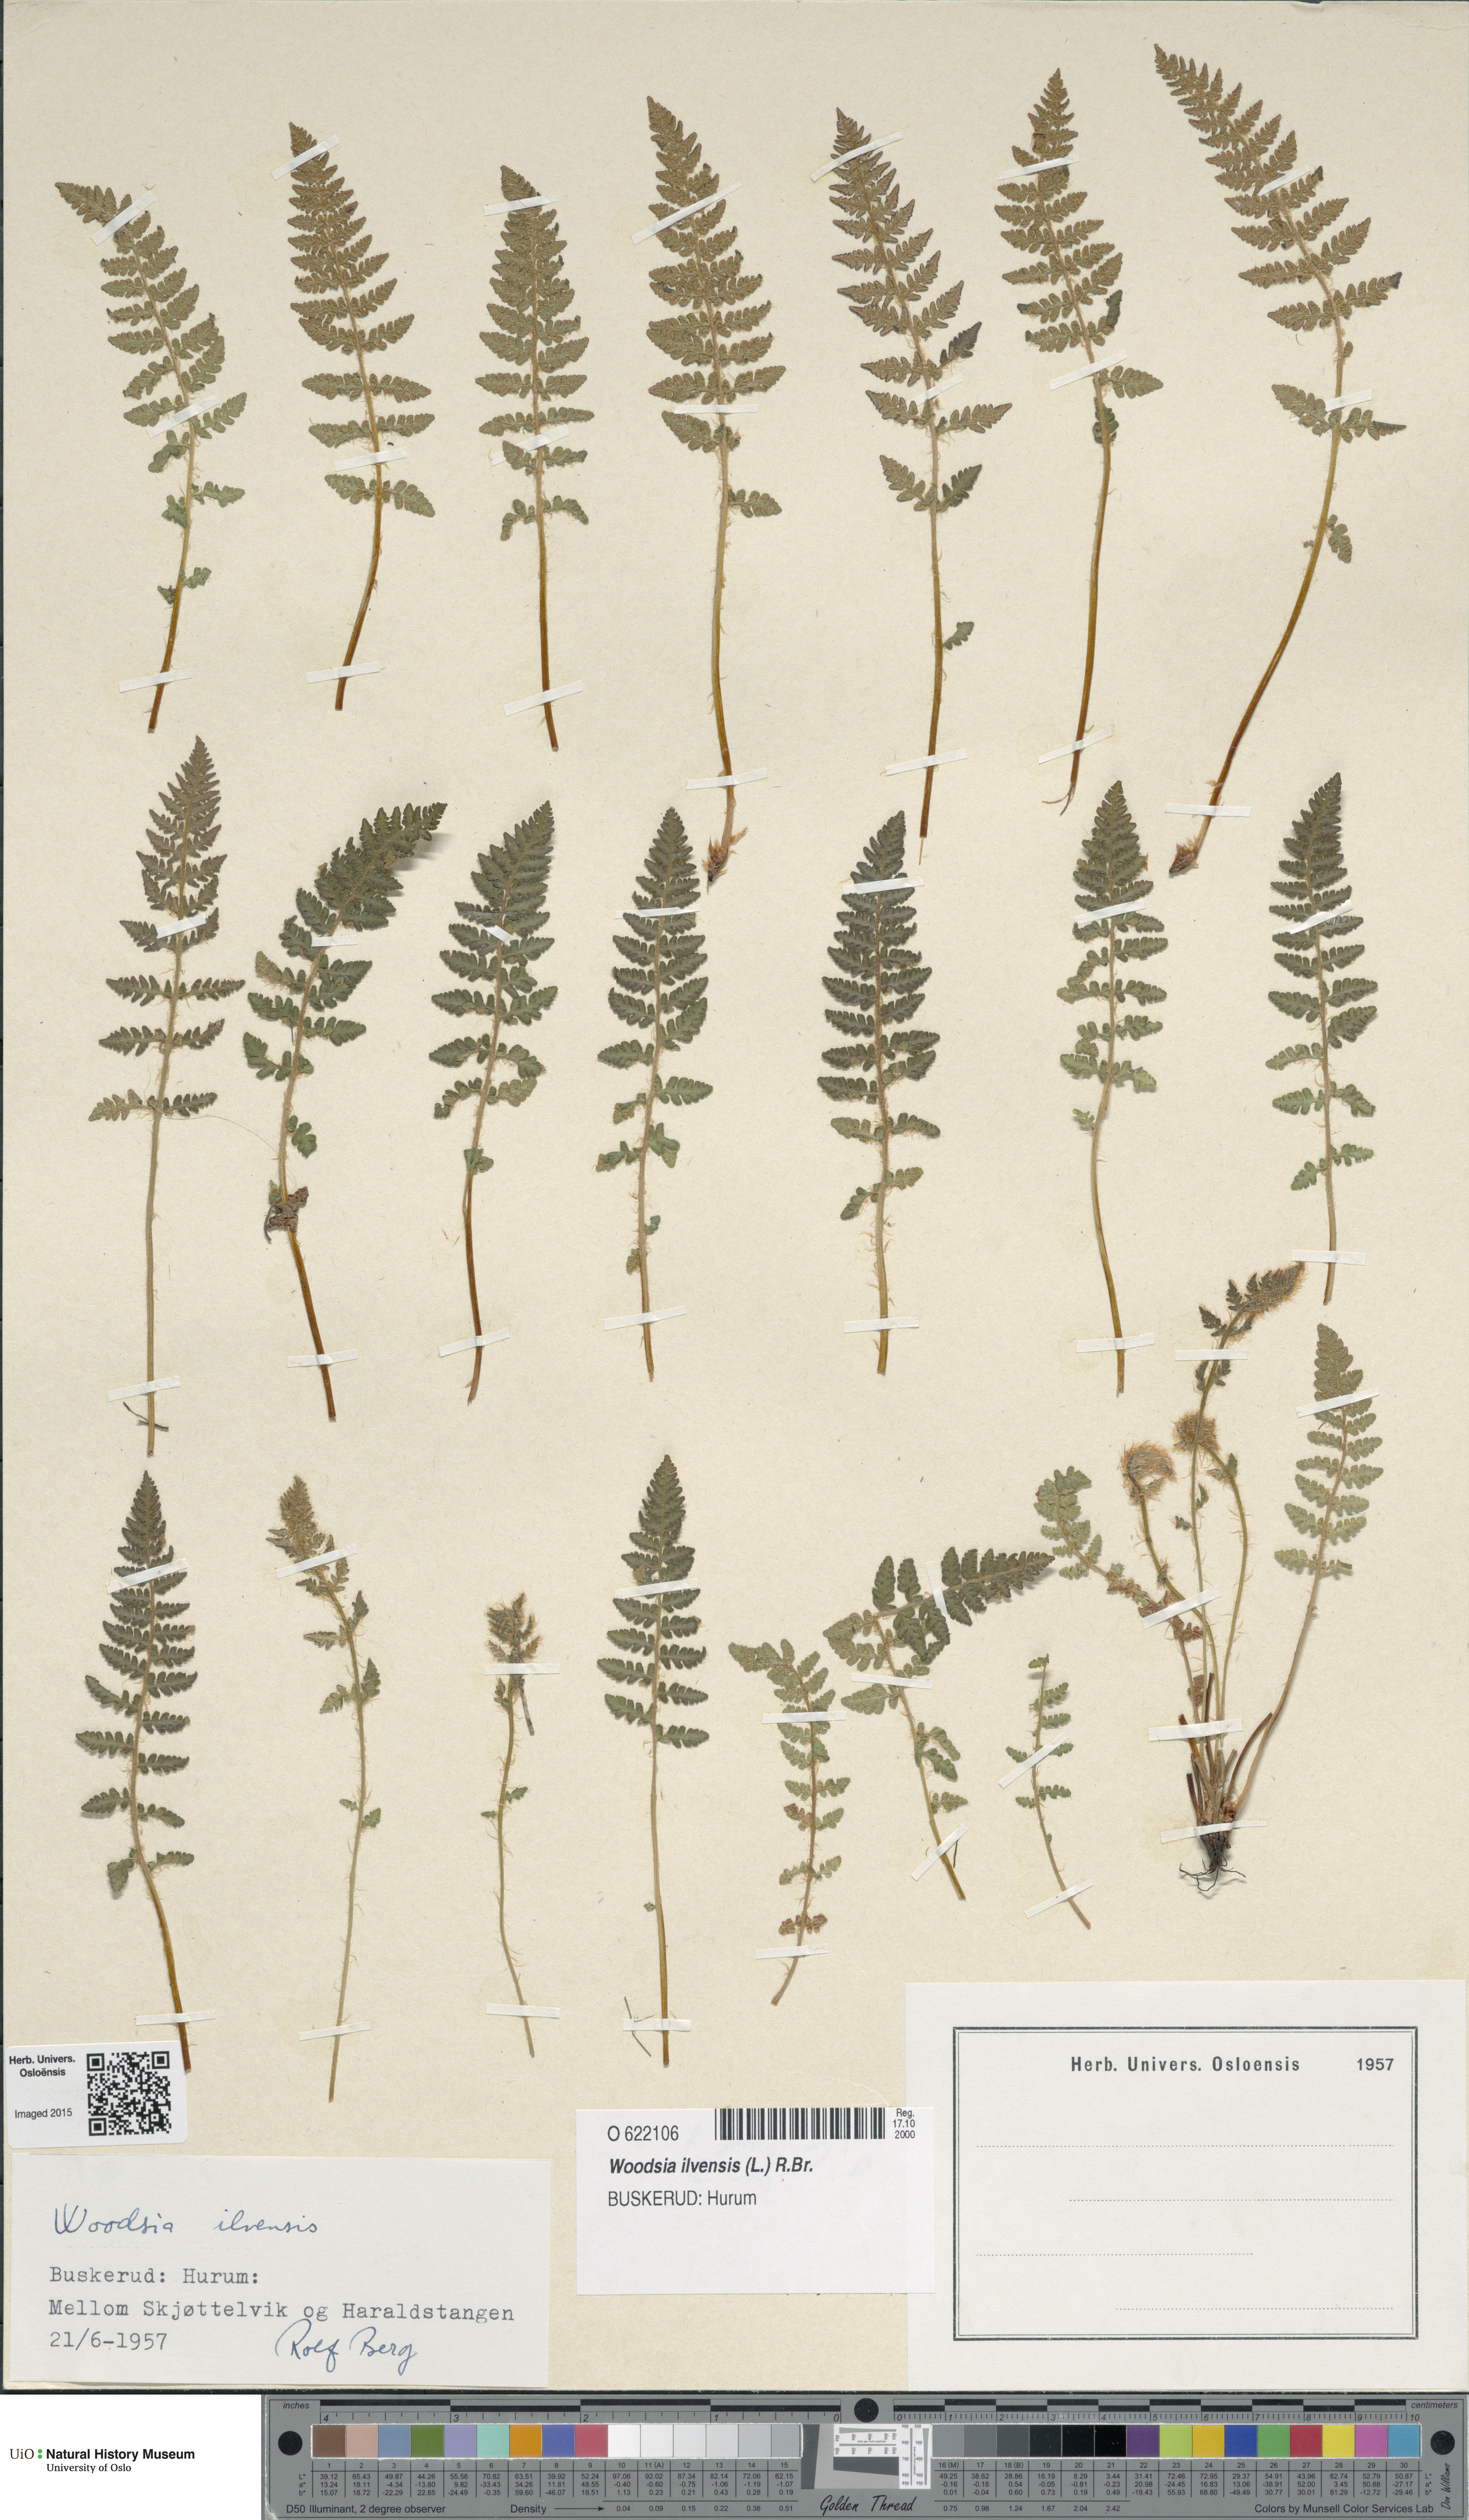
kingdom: Plantae
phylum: Tracheophyta
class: Polypodiopsida
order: Polypodiales
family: Woodsiaceae
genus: Woodsia
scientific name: Woodsia ilvensis
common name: Fragrant woodsia
